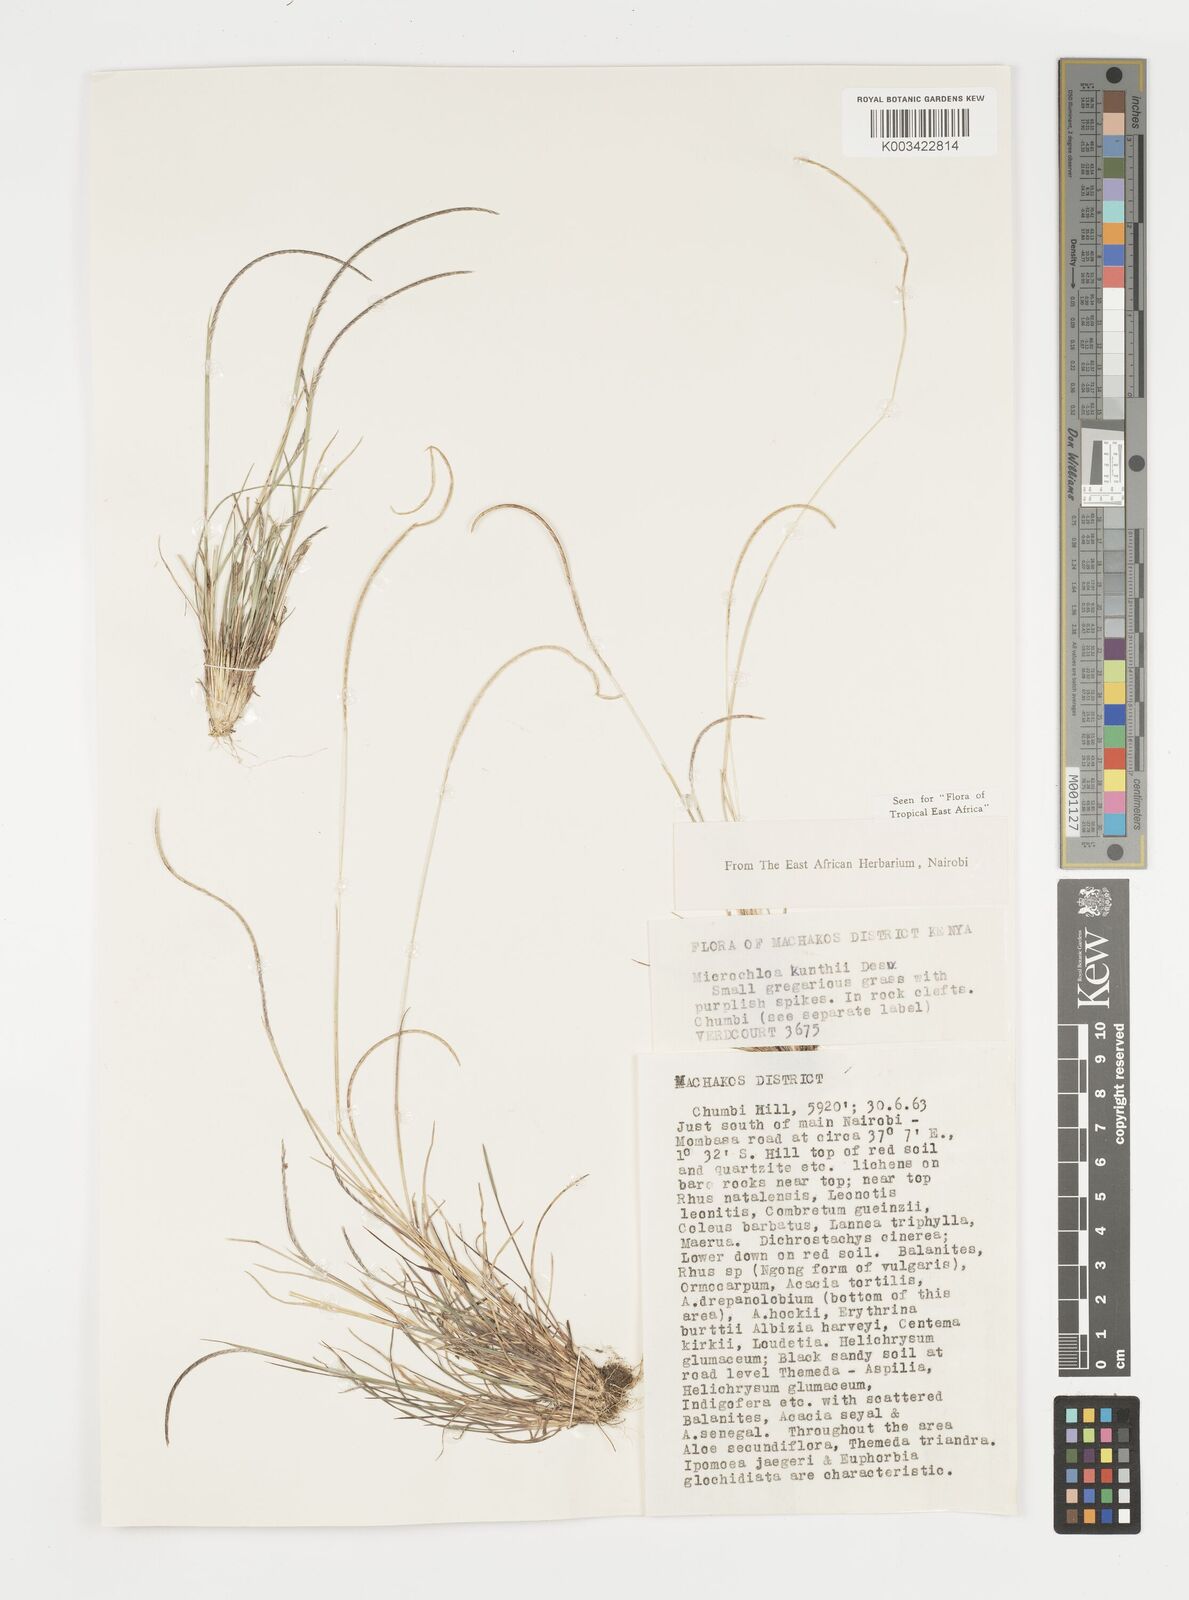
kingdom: Plantae
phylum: Tracheophyta
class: Liliopsida
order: Poales
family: Poaceae
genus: Microchloa
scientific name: Microchloa kunthii
